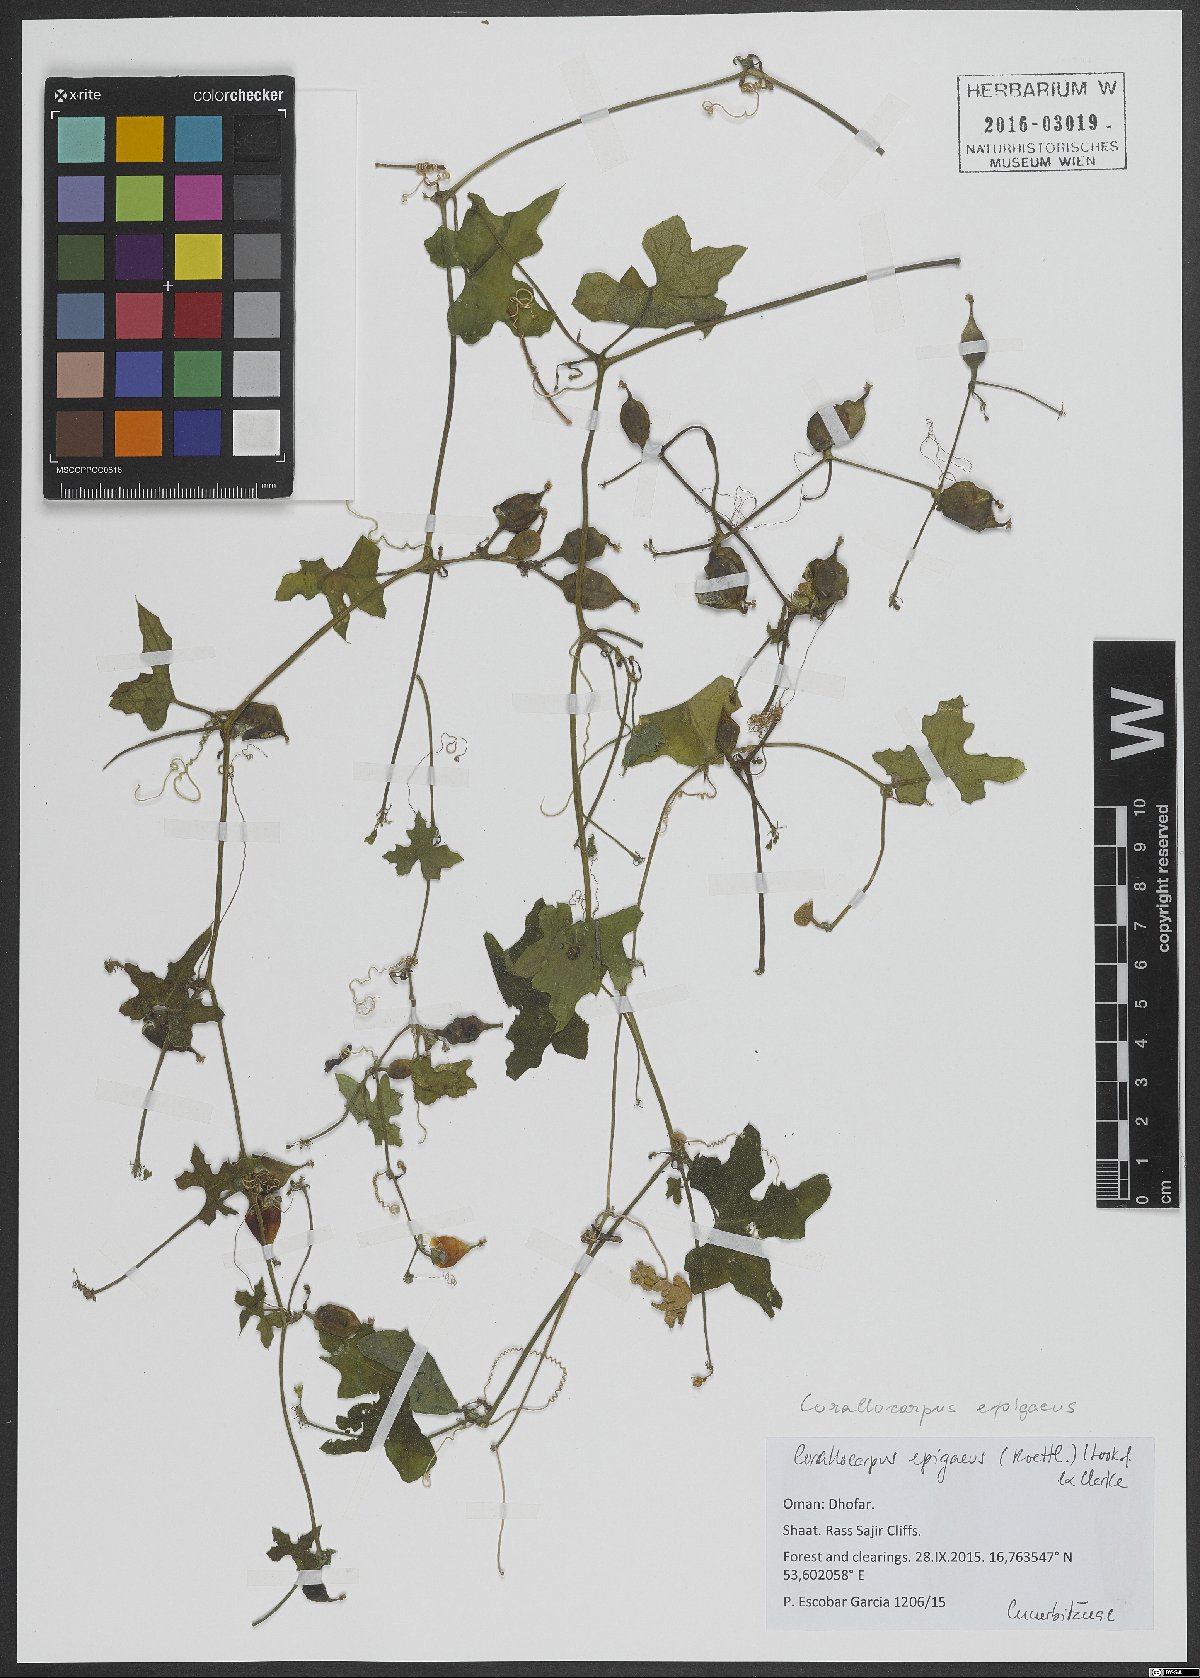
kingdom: Plantae
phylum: Tracheophyta
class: Magnoliopsida
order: Cucurbitales
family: Cucurbitaceae
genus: Corallocarpus
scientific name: Corallocarpus epigaeus
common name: Indian bryonia
